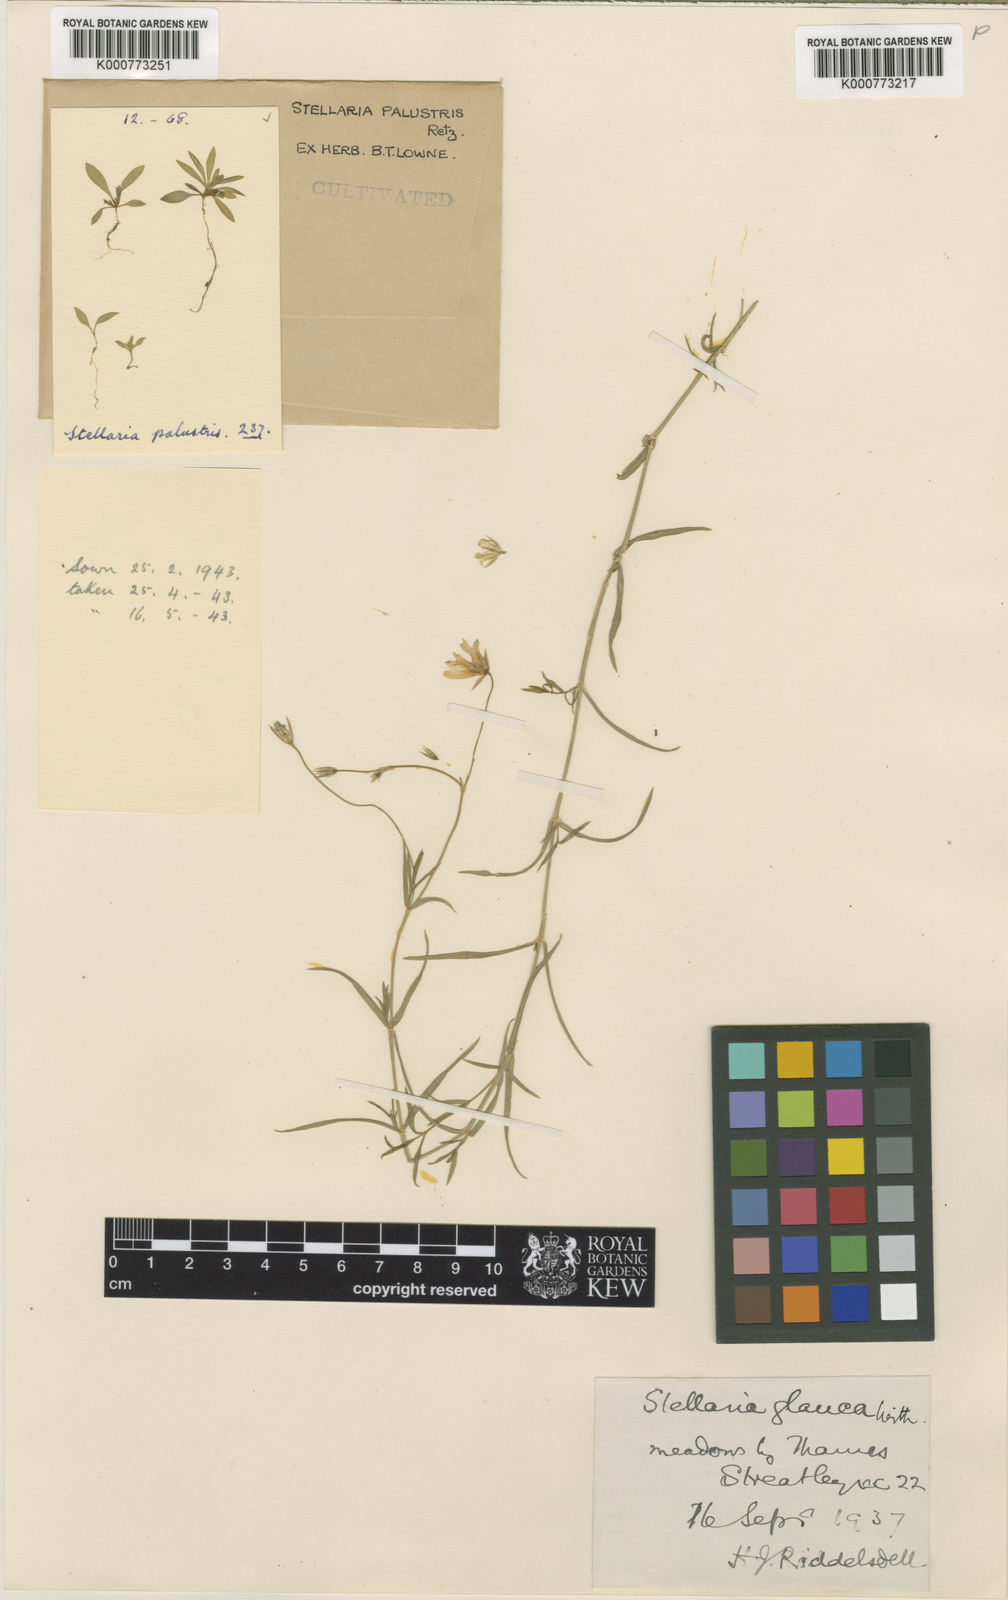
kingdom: Plantae
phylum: Tracheophyta
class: Magnoliopsida
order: Caryophyllales
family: Caryophyllaceae
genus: Stellaria
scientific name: Stellaria
